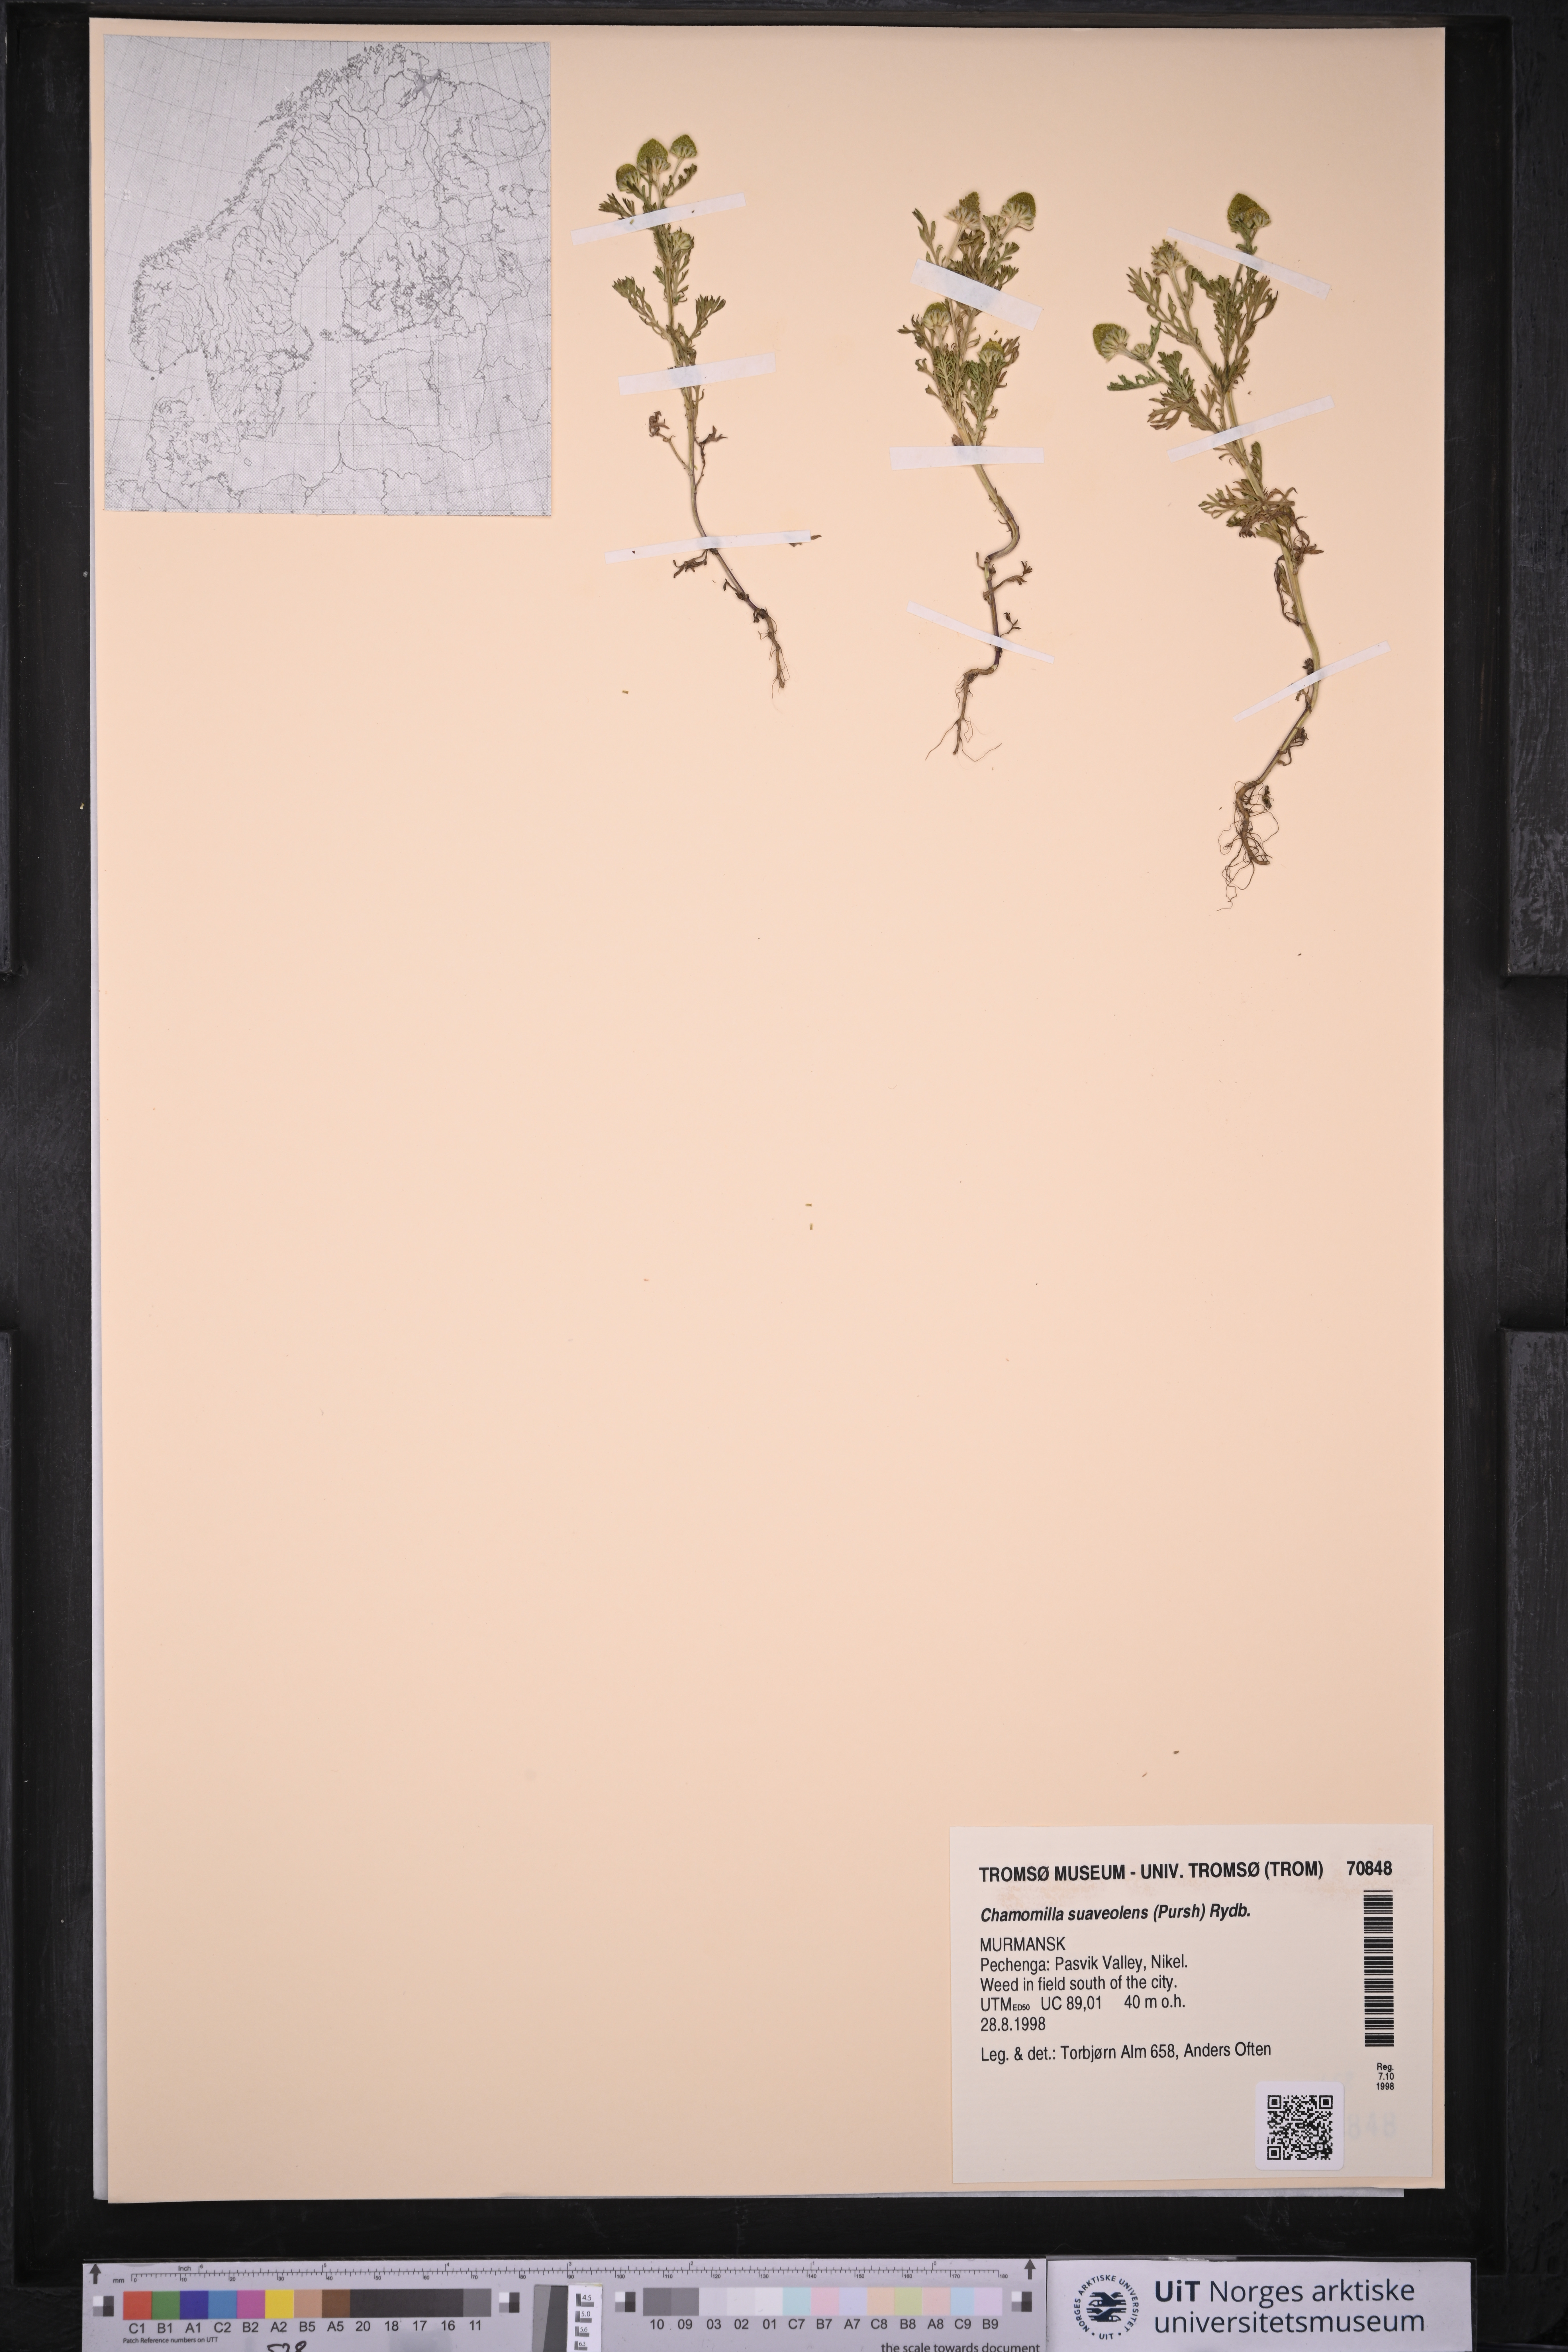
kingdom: Plantae
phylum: Tracheophyta
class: Magnoliopsida
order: Asterales
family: Asteraceae
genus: Matricaria
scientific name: Matricaria discoidea
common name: Disc mayweed
